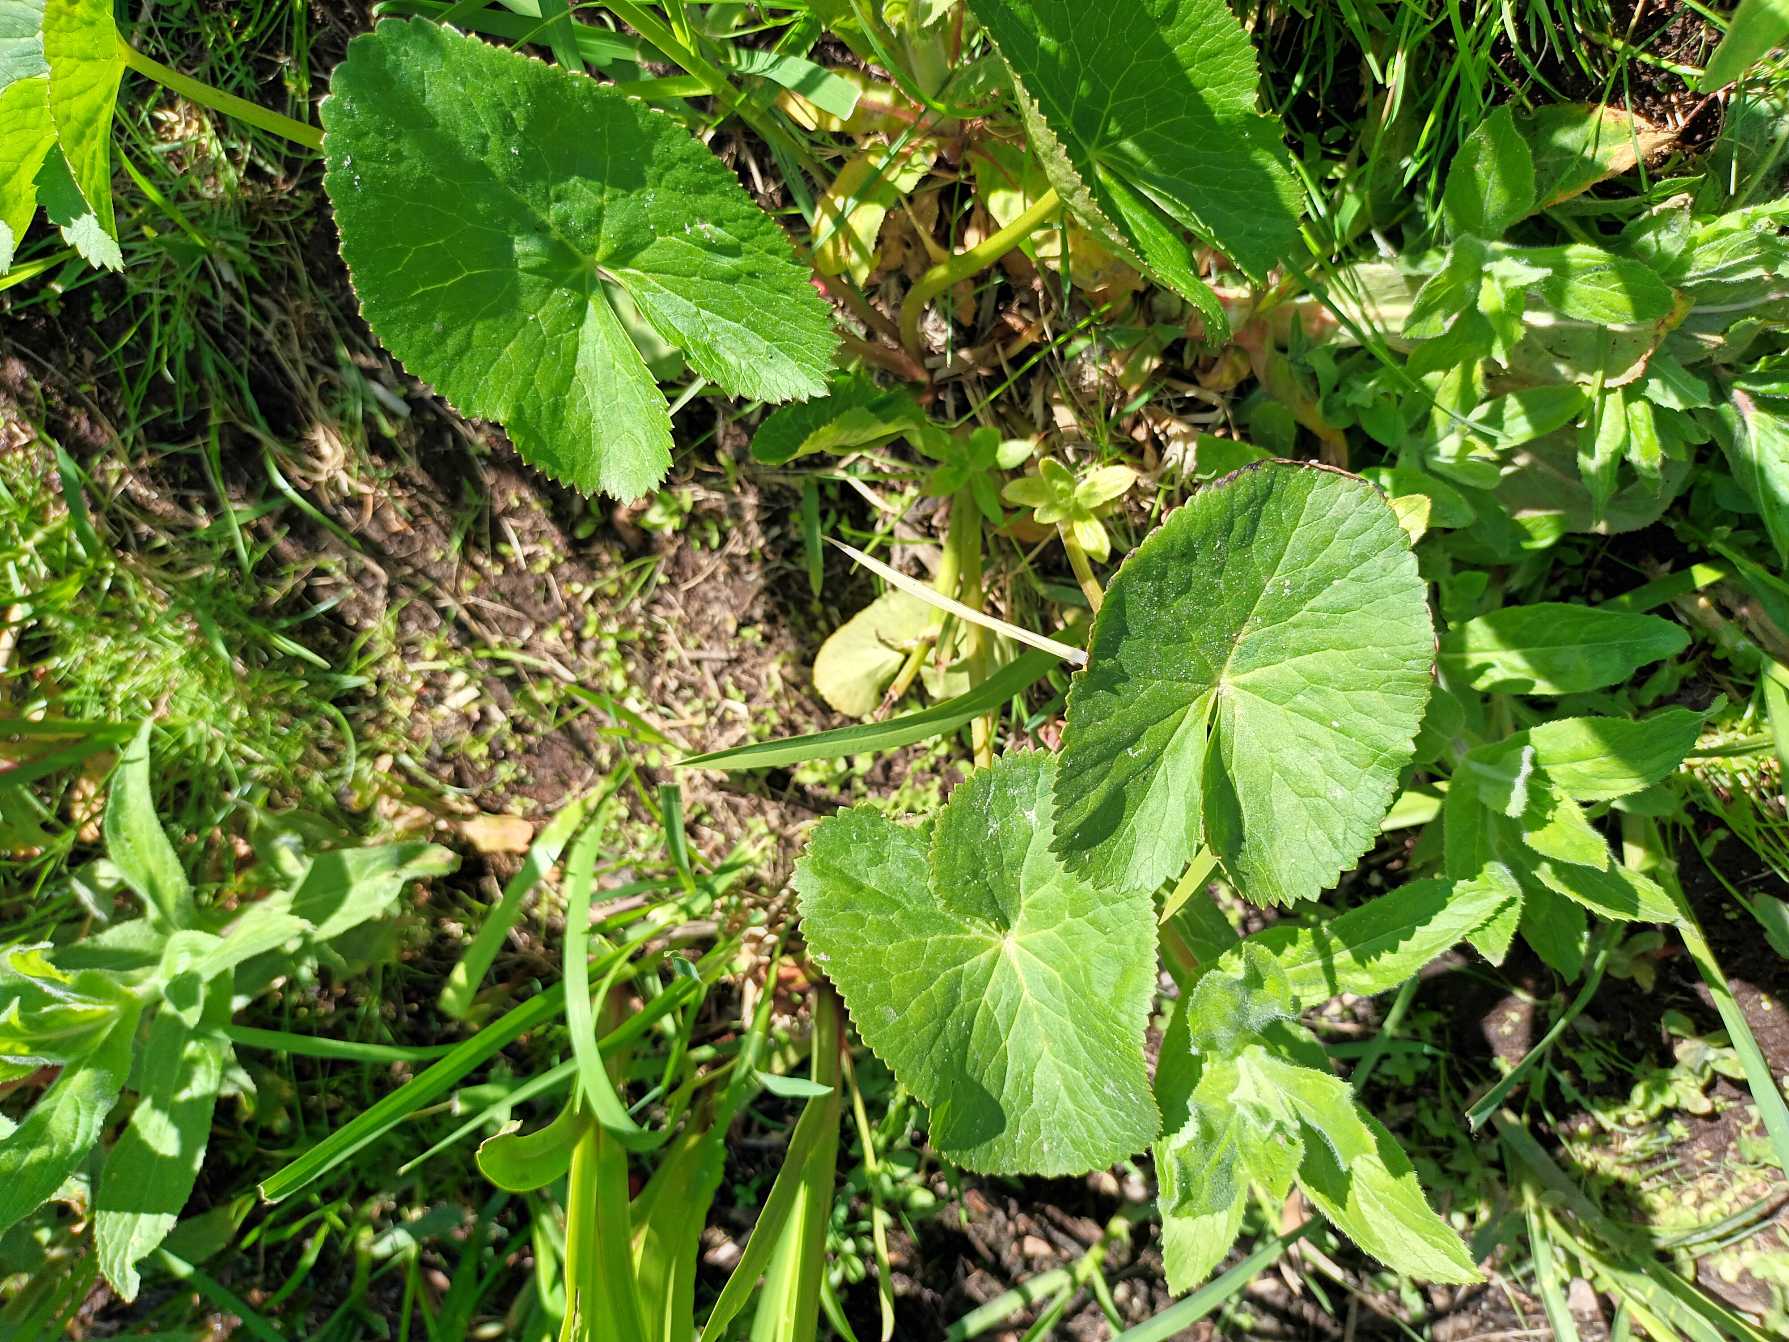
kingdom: Plantae
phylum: Tracheophyta
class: Magnoliopsida
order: Ranunculales
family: Ranunculaceae
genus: Caltha
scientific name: Caltha palustris
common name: Eng-kabbeleje
